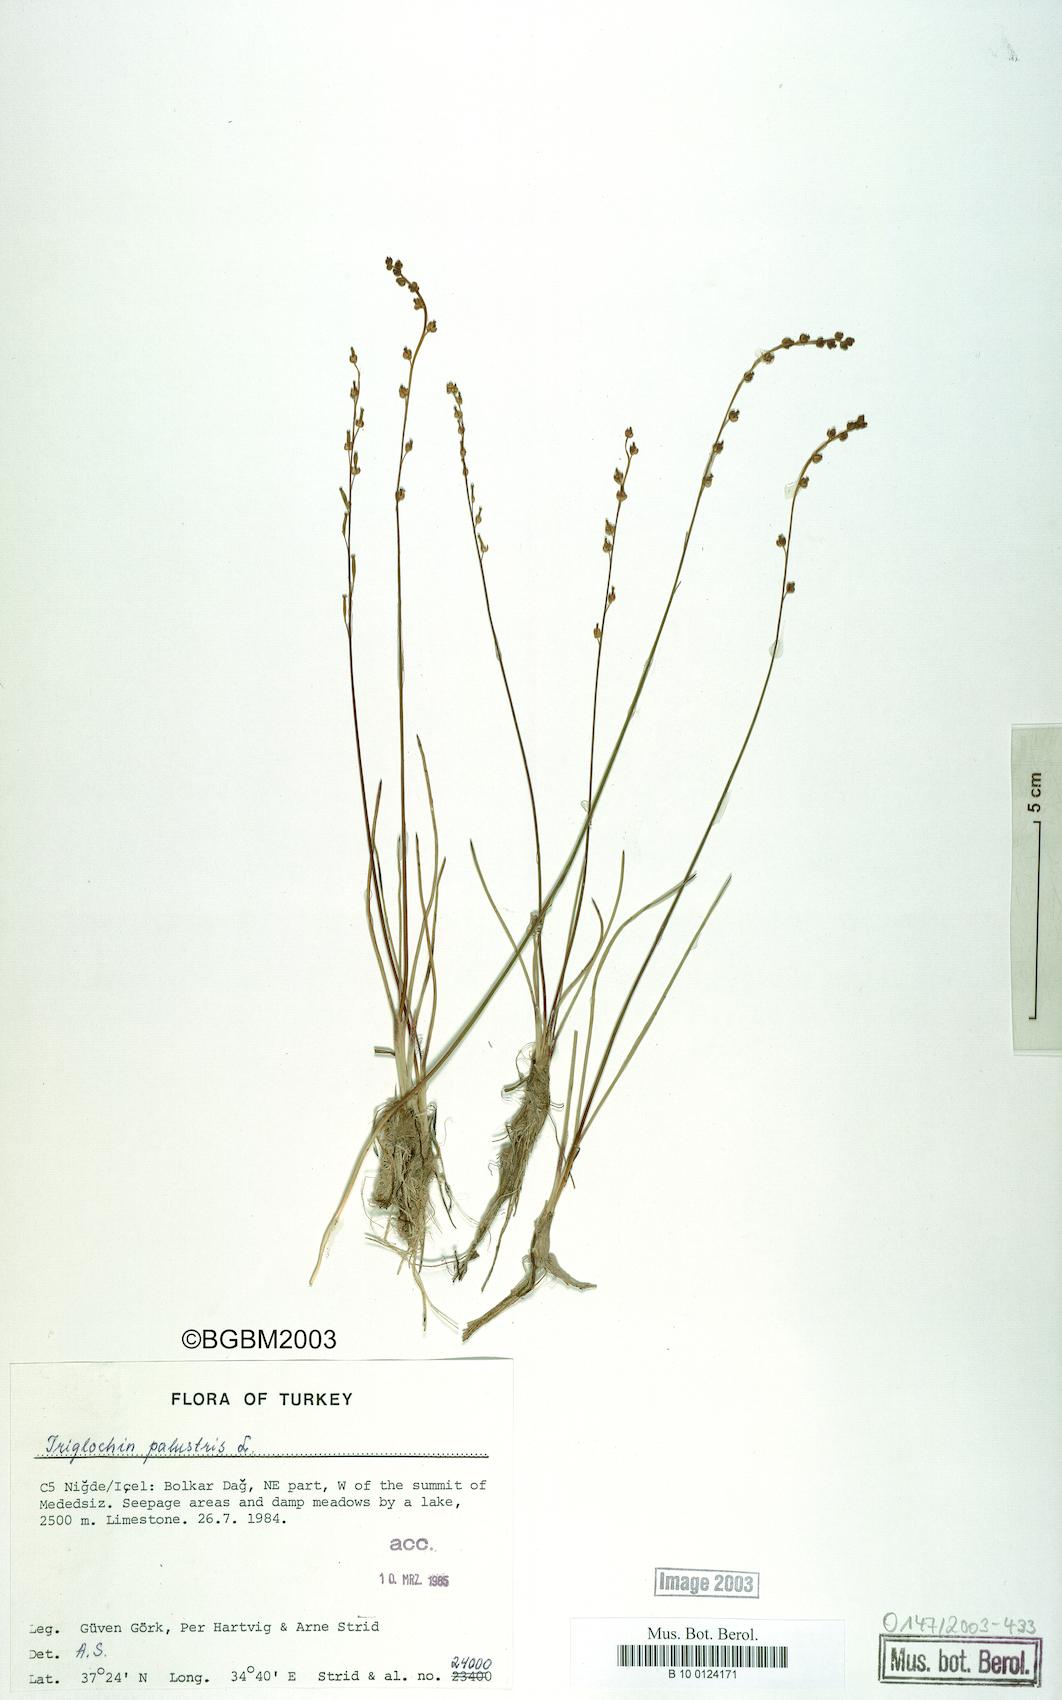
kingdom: Plantae
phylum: Tracheophyta
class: Liliopsida
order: Alismatales
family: Juncaginaceae
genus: Triglochin
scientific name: Triglochin palustris
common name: Marsh arrowgrass
